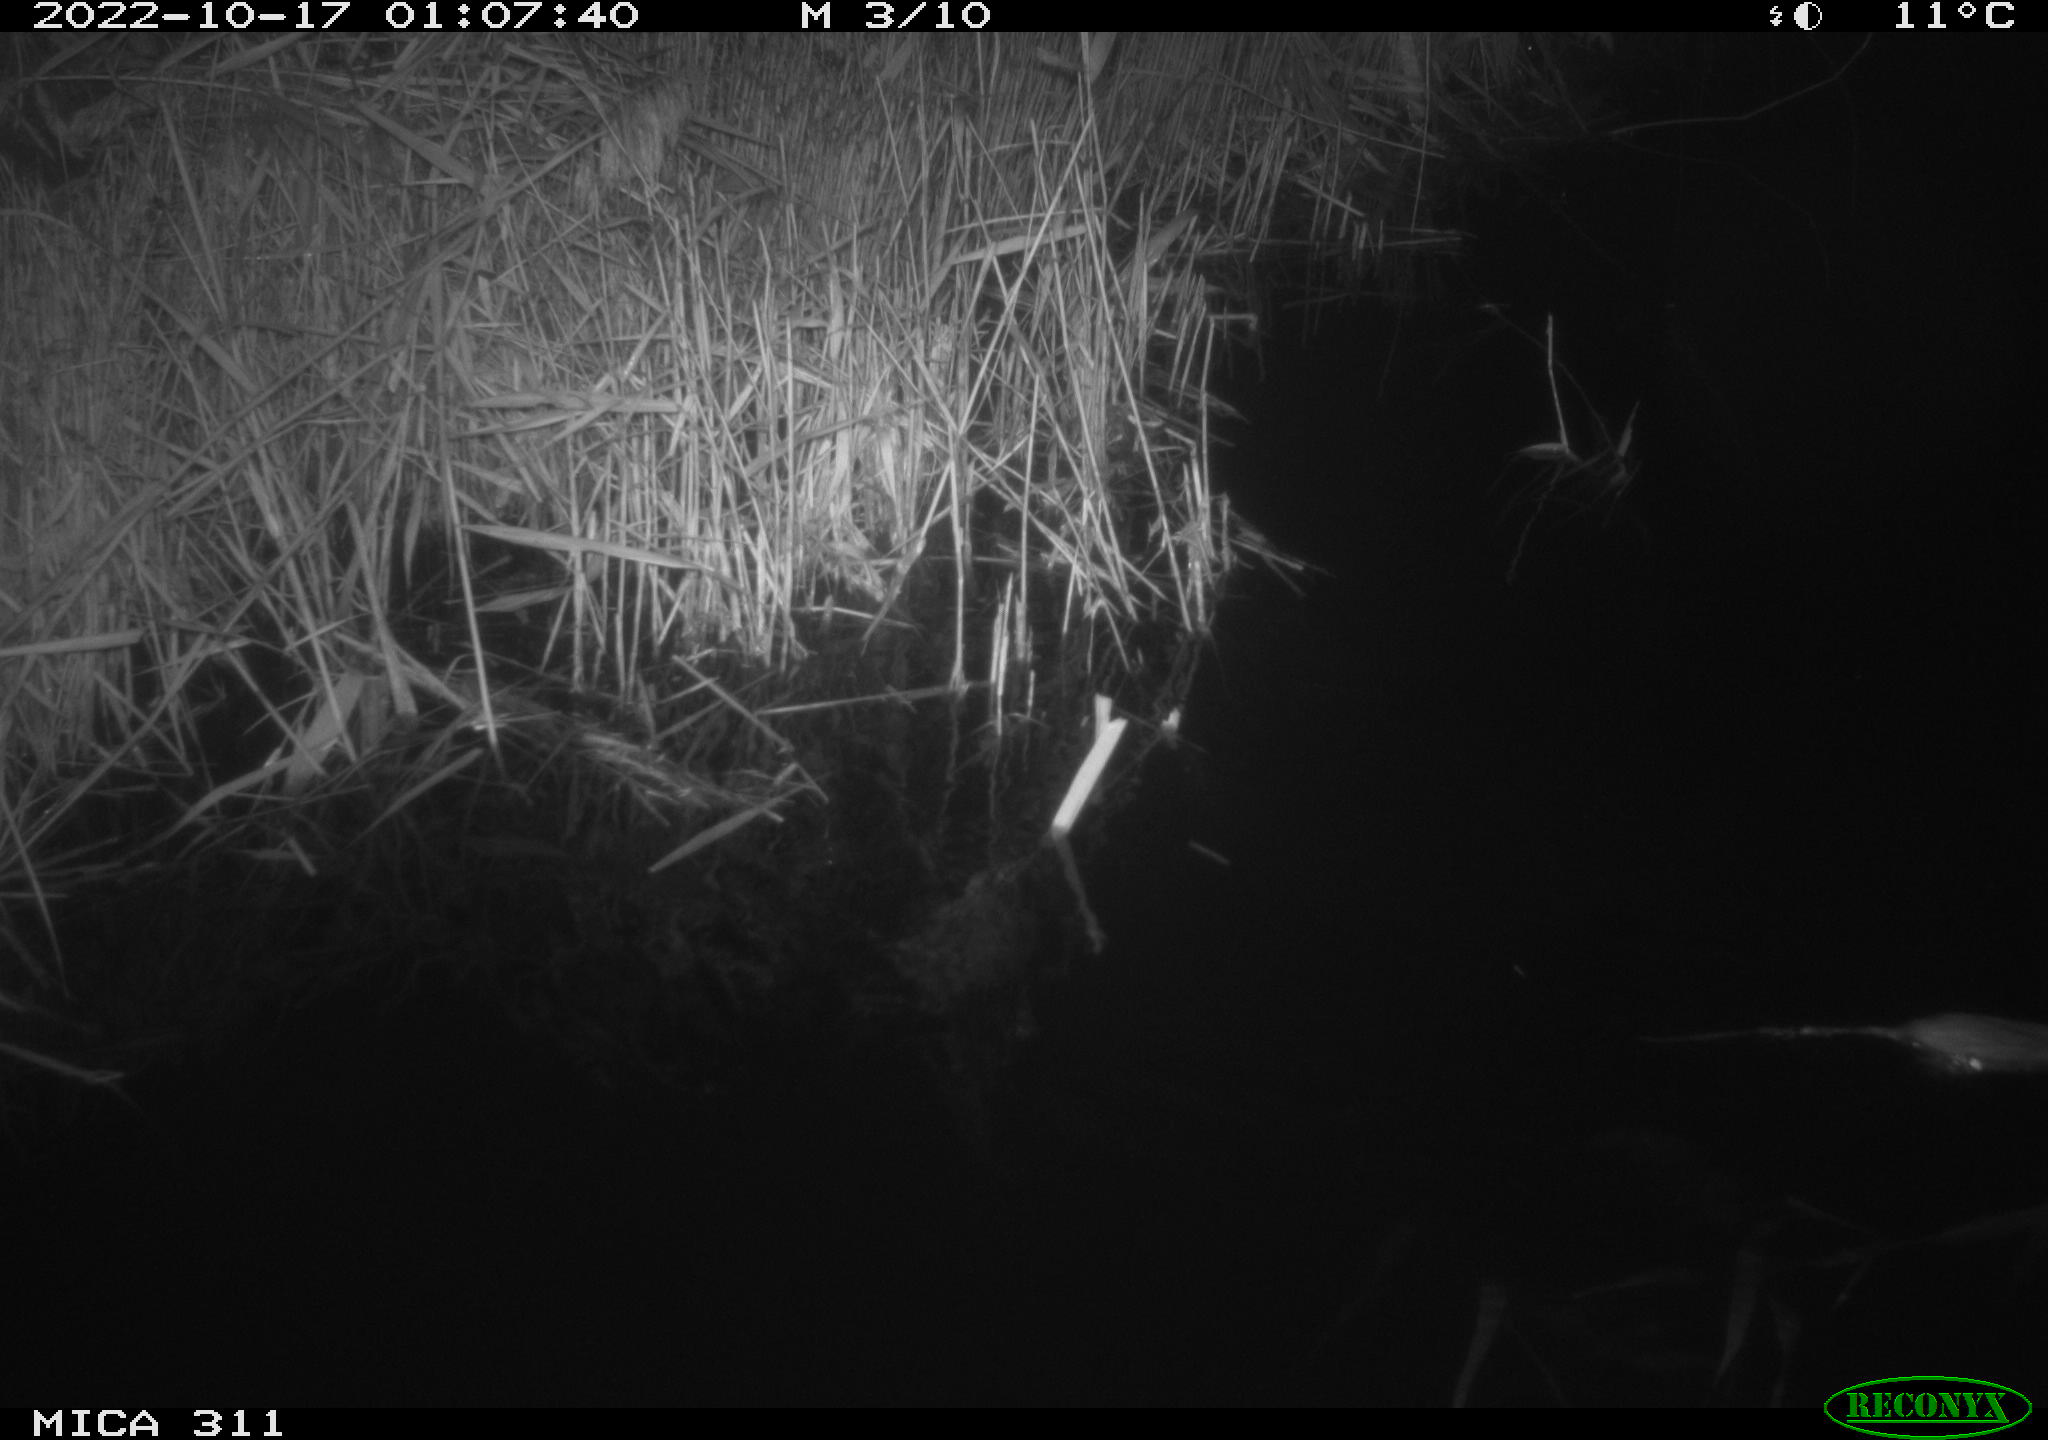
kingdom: Animalia
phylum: Chordata
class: Mammalia
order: Rodentia
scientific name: Rodentia
